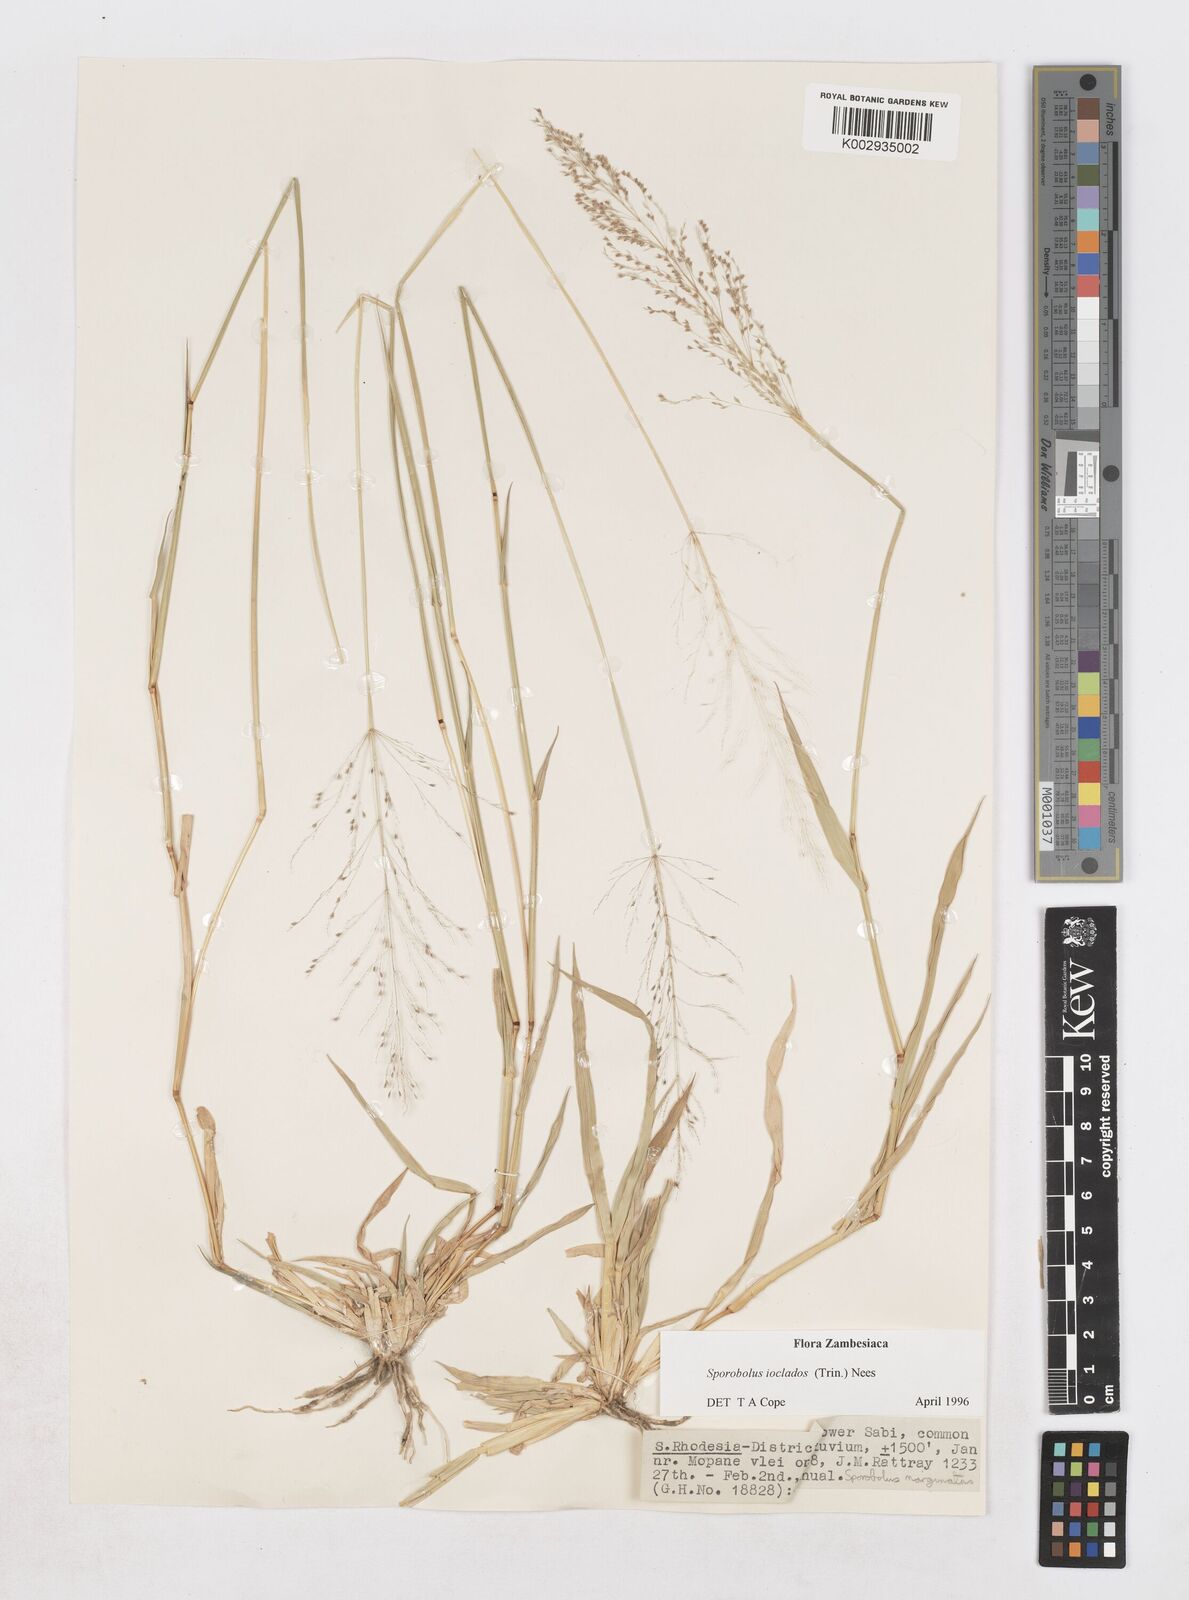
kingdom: Plantae
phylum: Tracheophyta
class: Liliopsida
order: Poales
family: Poaceae
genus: Sporobolus
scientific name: Sporobolus ioclados
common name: Pan dropseed
